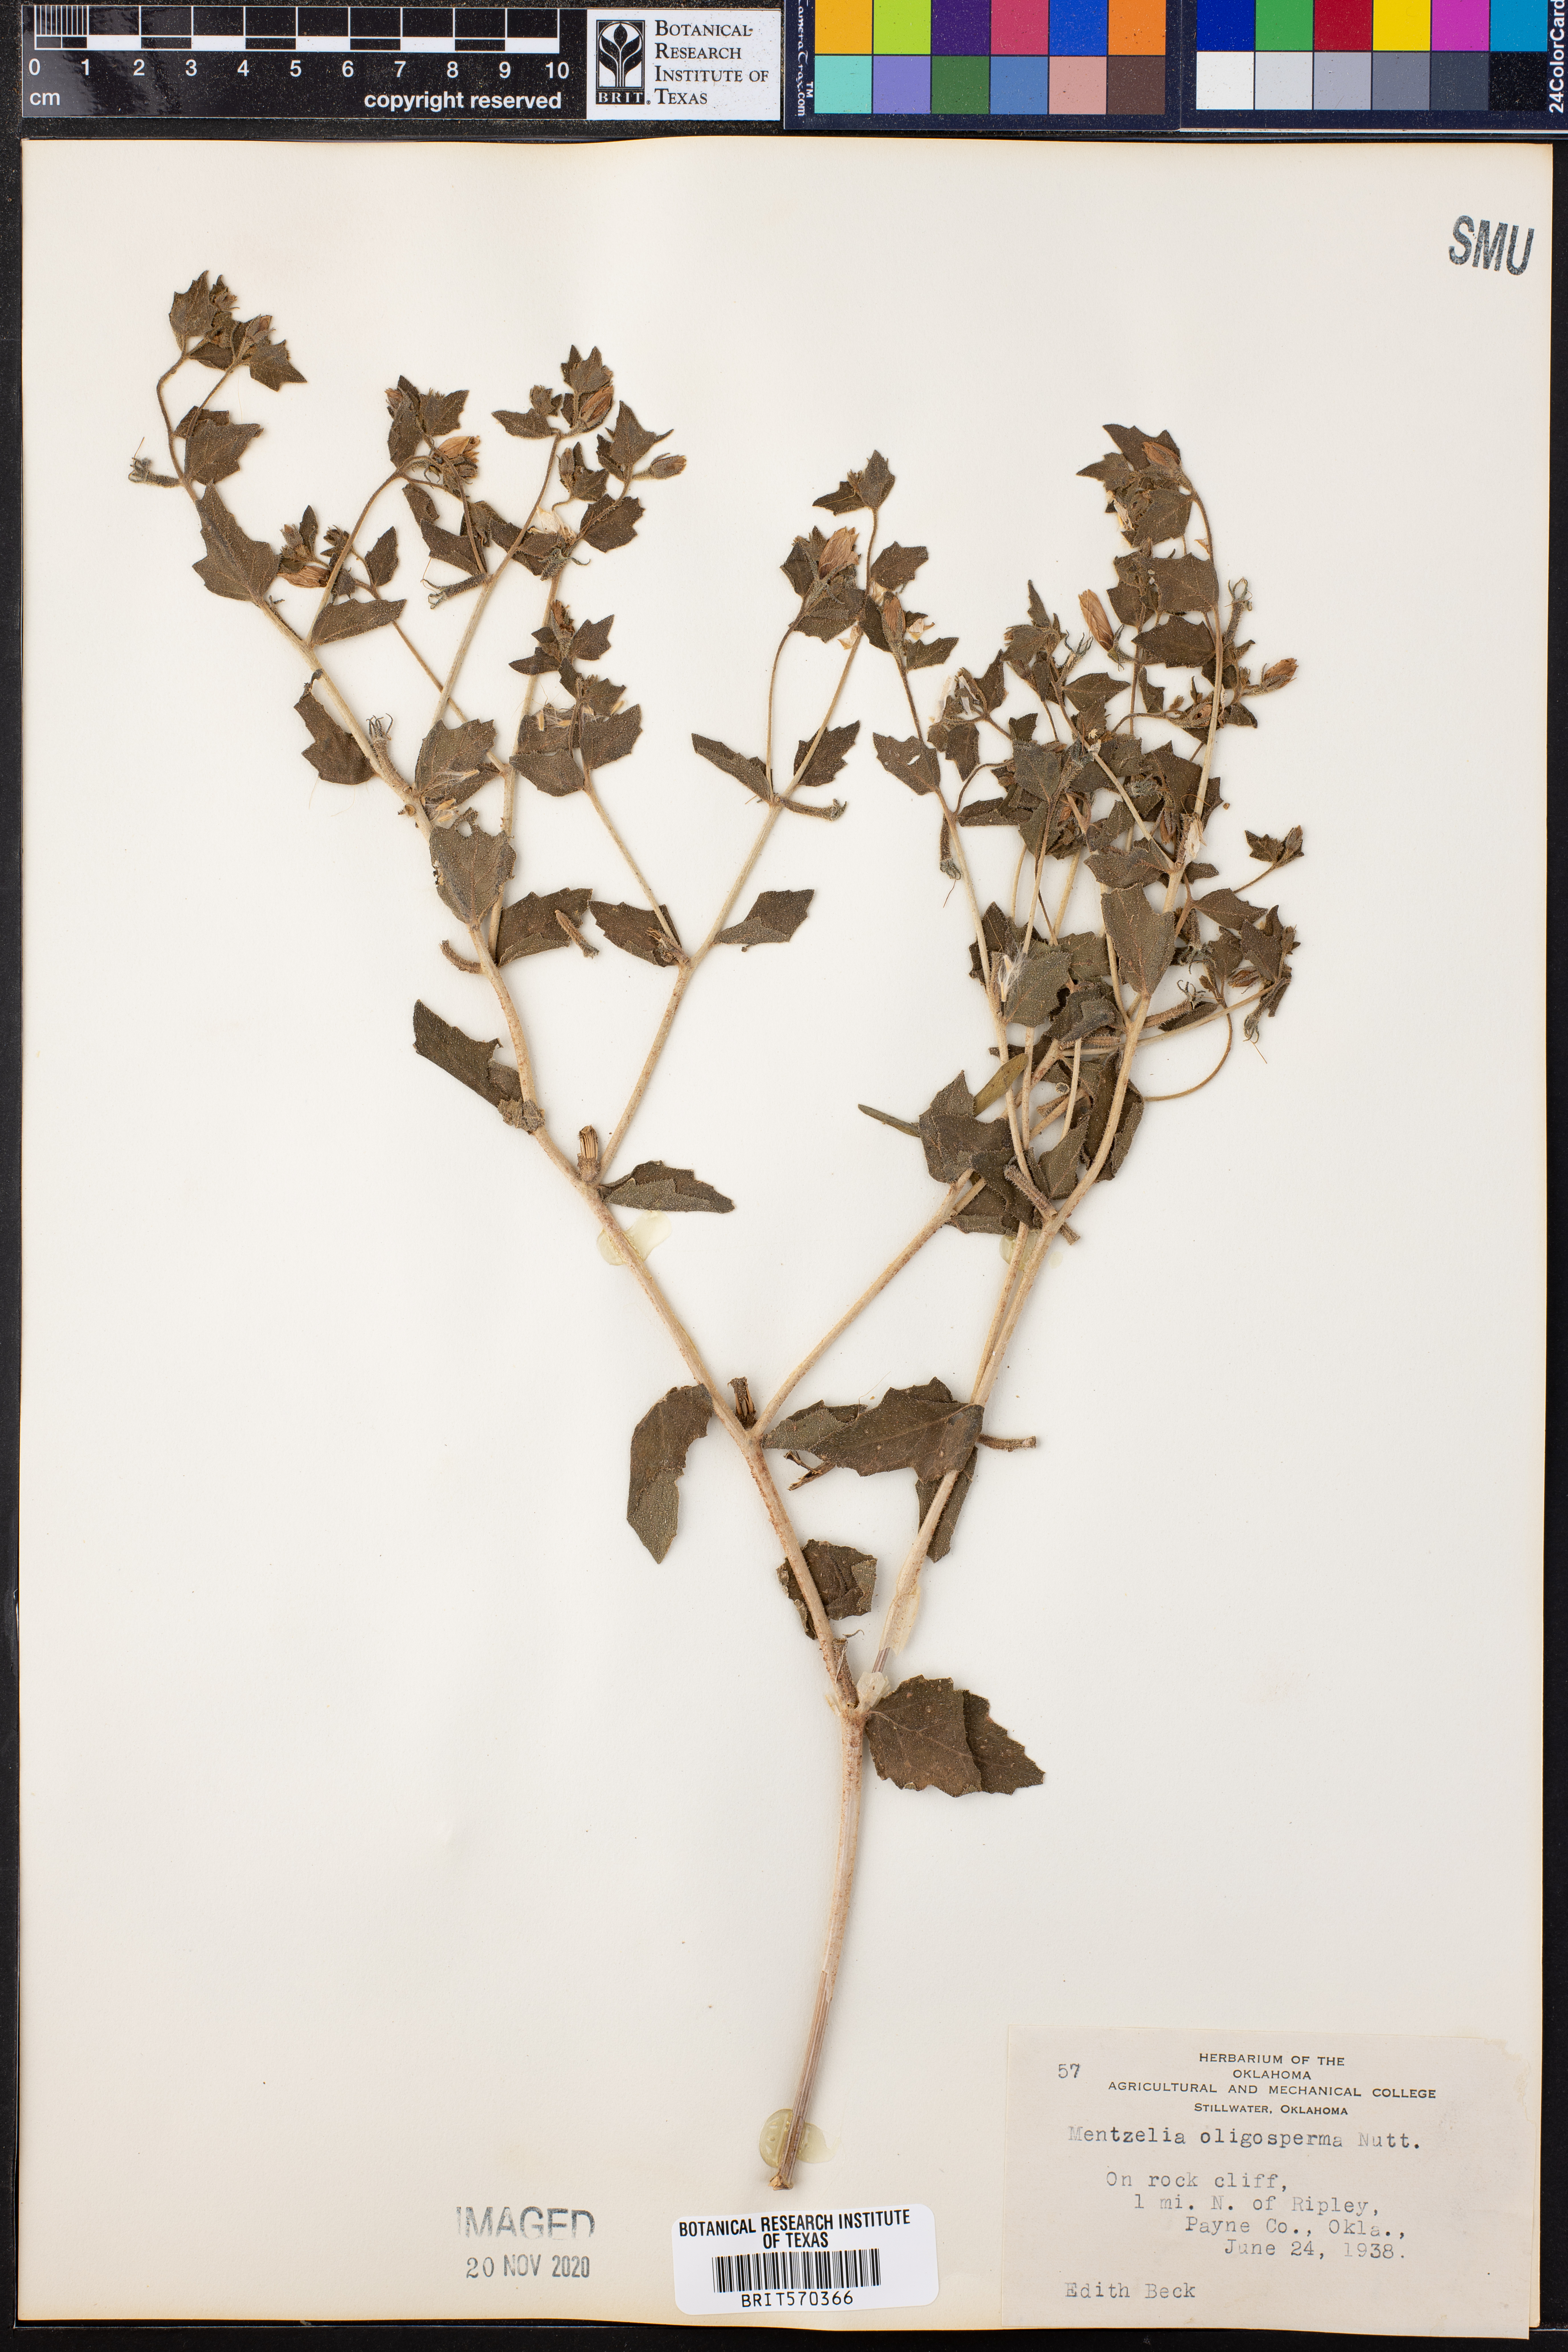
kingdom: Plantae
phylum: Tracheophyta
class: Magnoliopsida
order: Cornales
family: Loasaceae
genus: Mentzelia
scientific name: Mentzelia oligosperma
